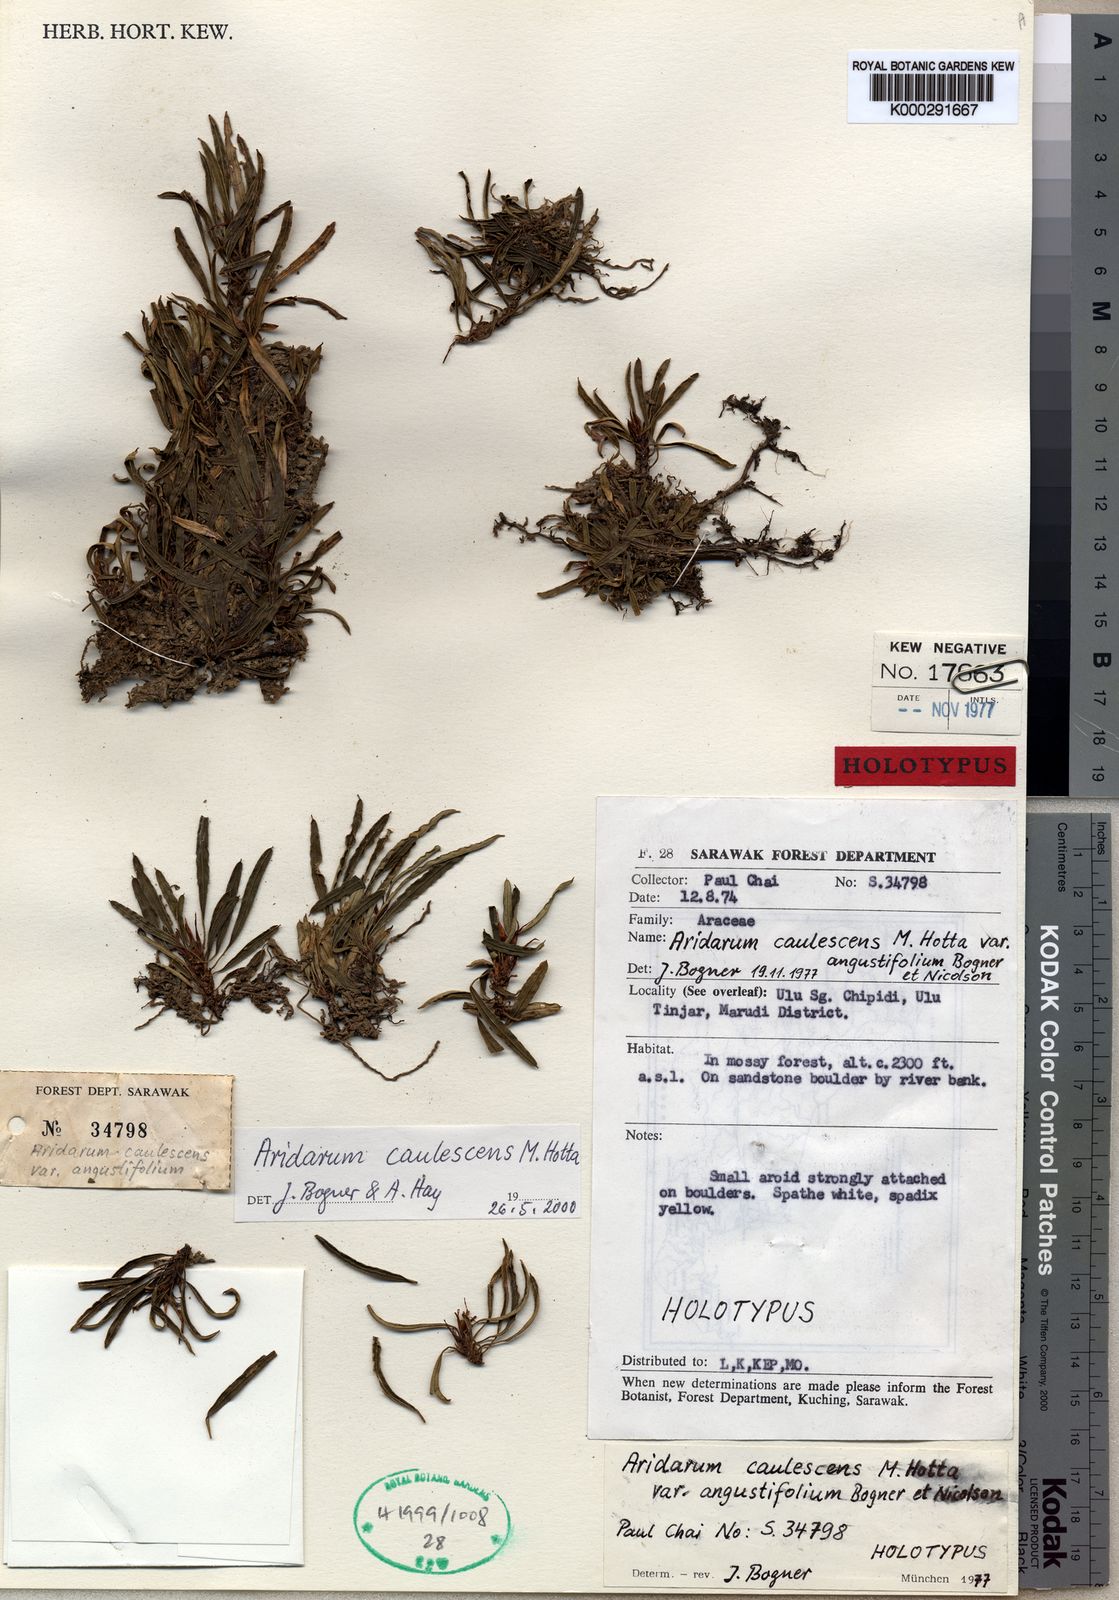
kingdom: Plantae
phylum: Tracheophyta
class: Liliopsida
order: Alismatales
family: Araceae
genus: Burttianthus
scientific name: Burttianthus caulescens
